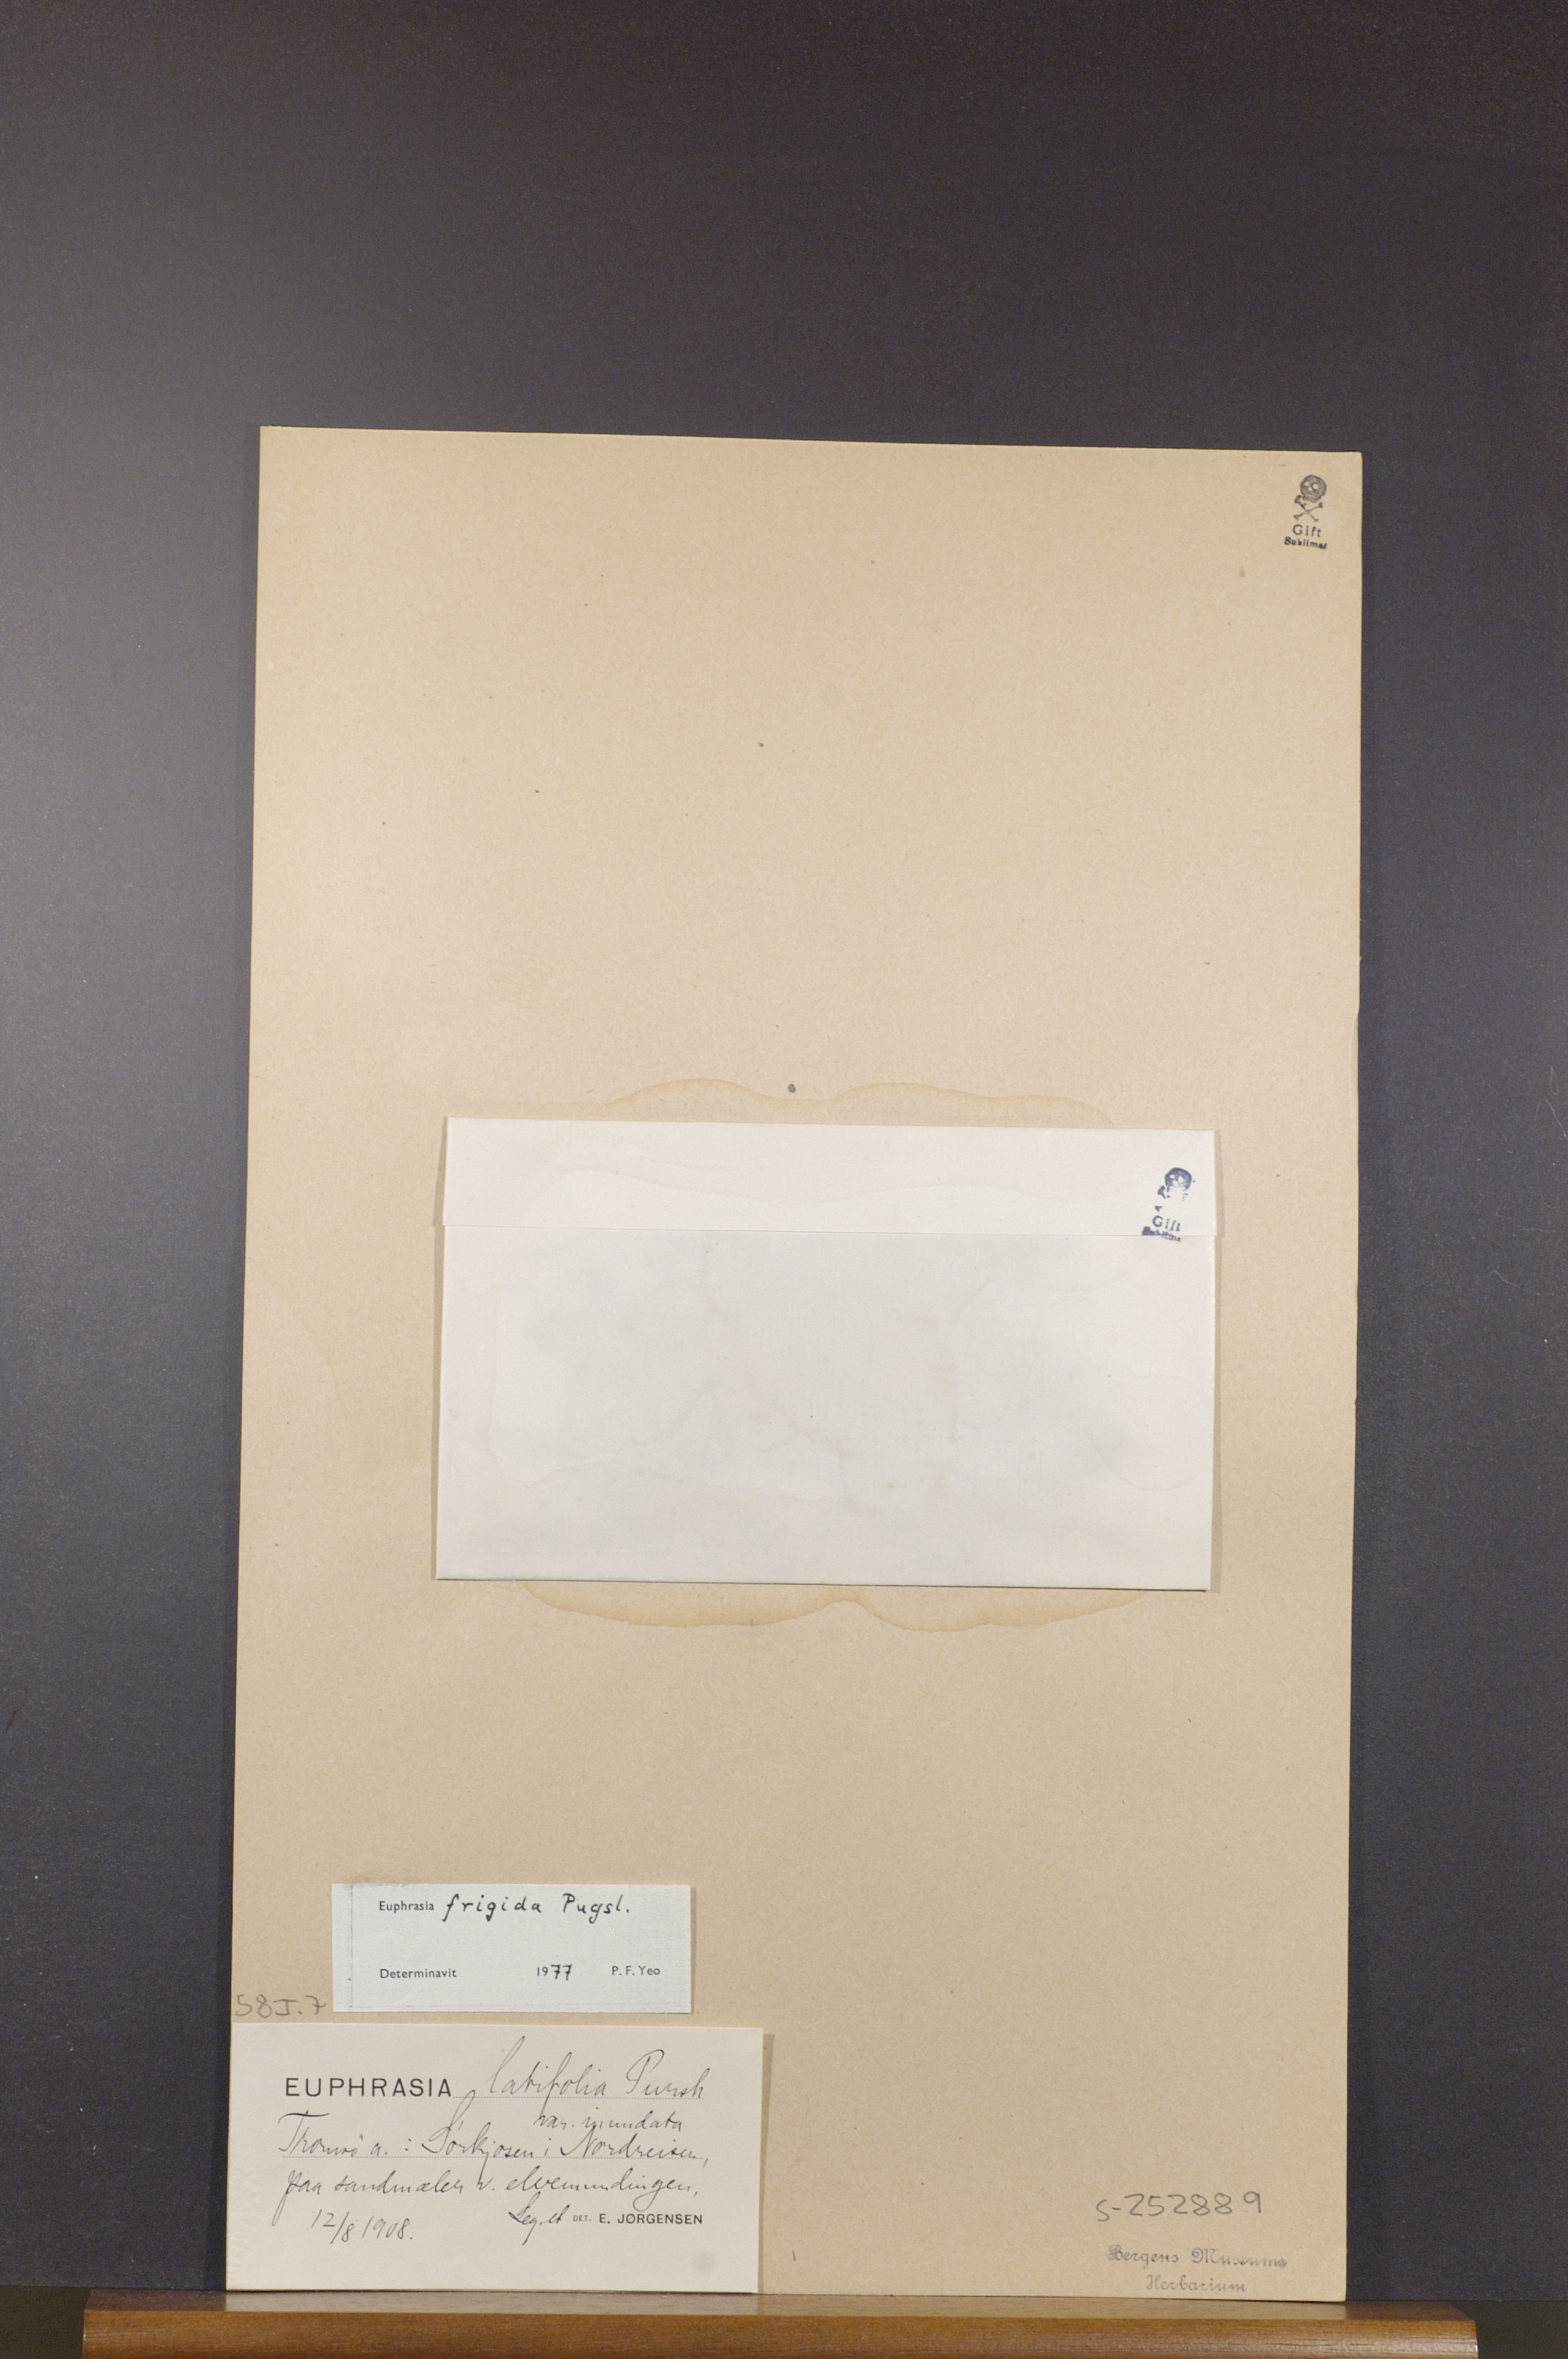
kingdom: Plantae
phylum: Tracheophyta
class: Magnoliopsida
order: Lamiales
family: Orobanchaceae
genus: Euphrasia
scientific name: Euphrasia bottnica
